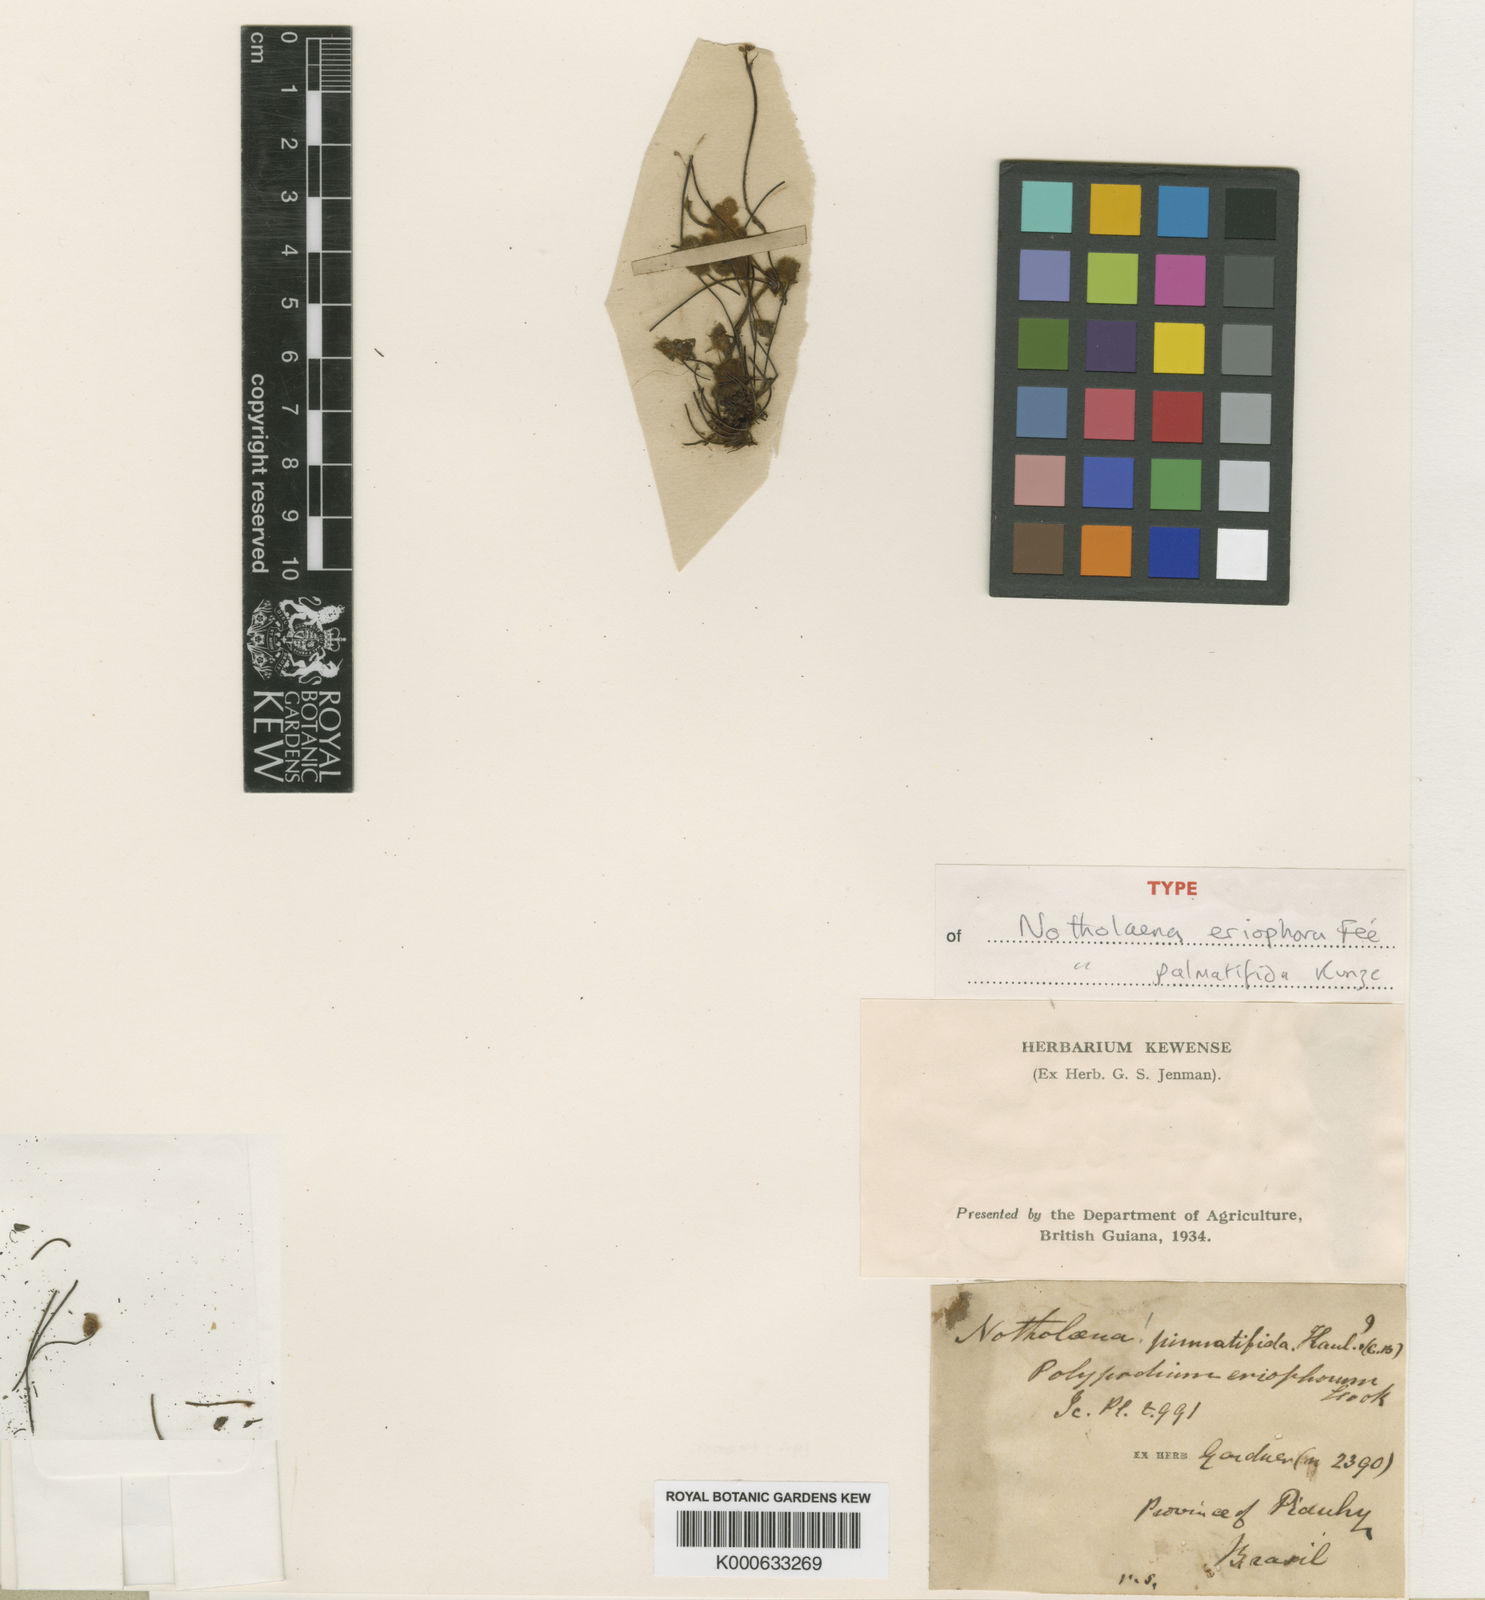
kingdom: Plantae
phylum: Tracheophyta
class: Polypodiopsida
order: Polypodiales
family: Pteridaceae
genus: Cheilanthes
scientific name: Cheilanthes
